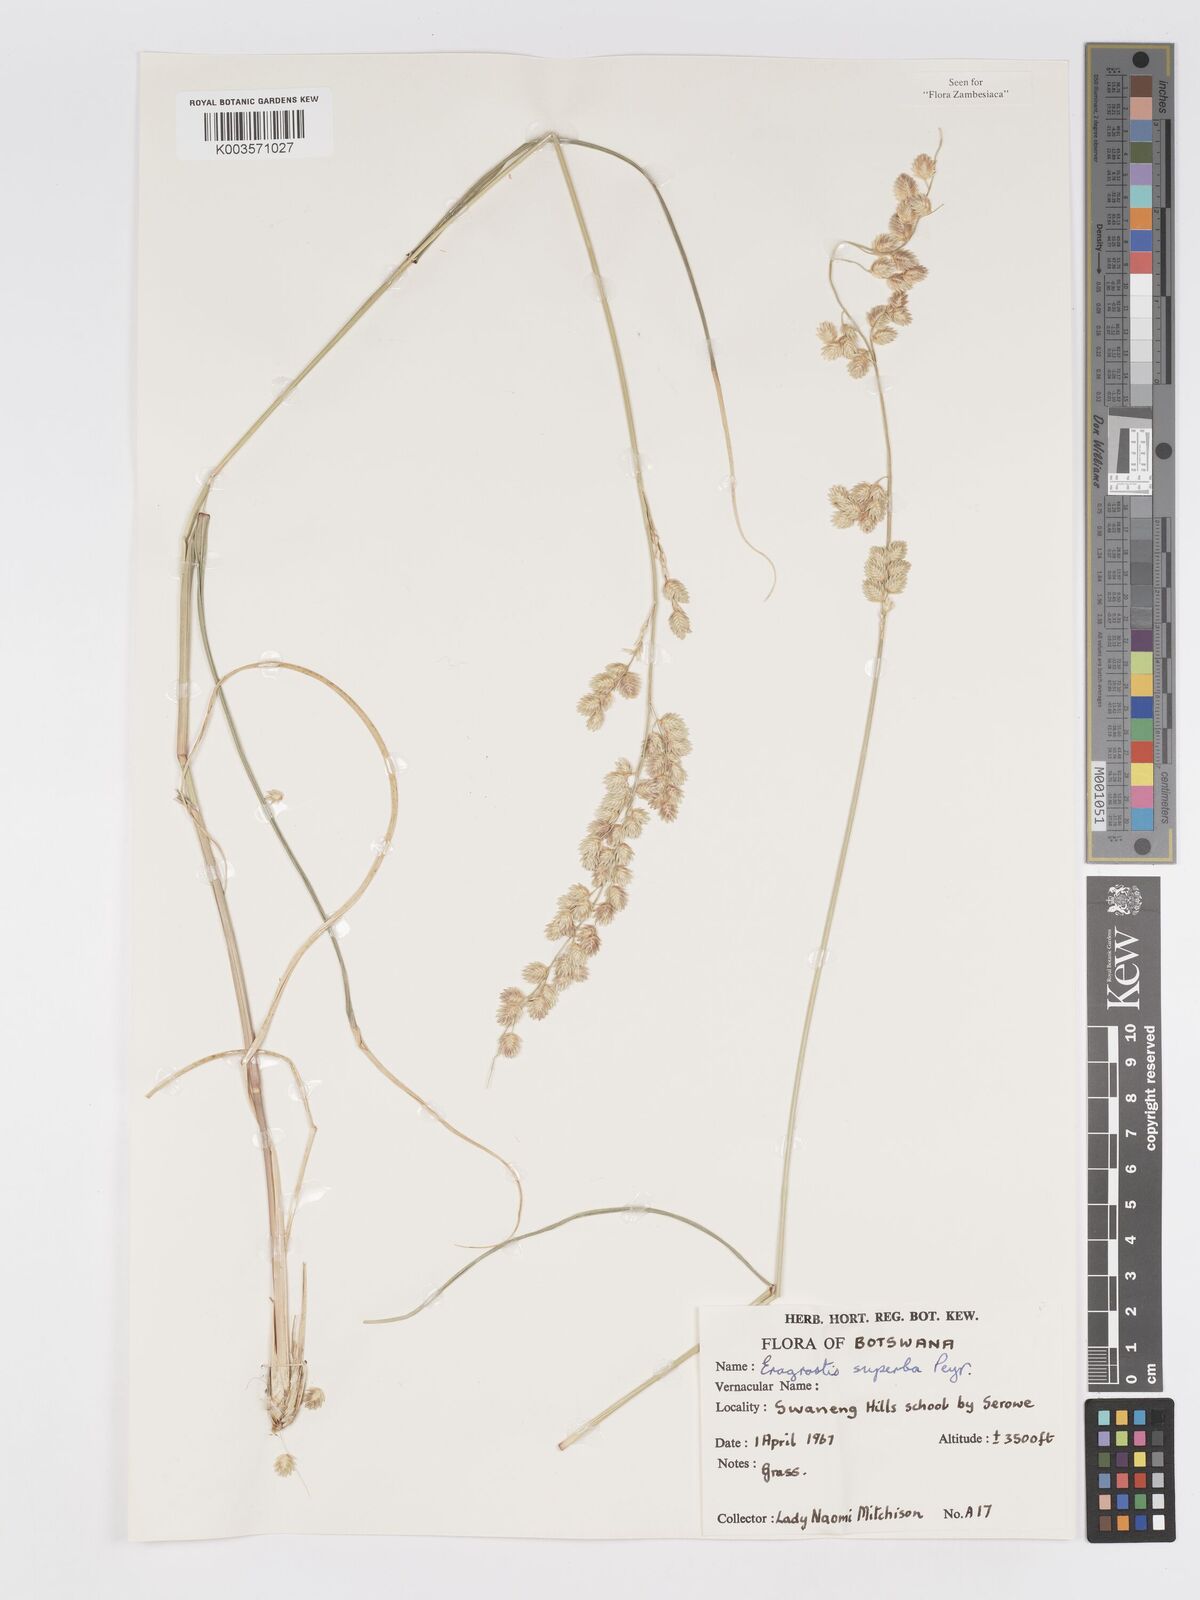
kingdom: Plantae
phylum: Tracheophyta
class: Liliopsida
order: Poales
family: Poaceae
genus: Eragrostis
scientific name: Eragrostis superba
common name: Wilman lovegrass
